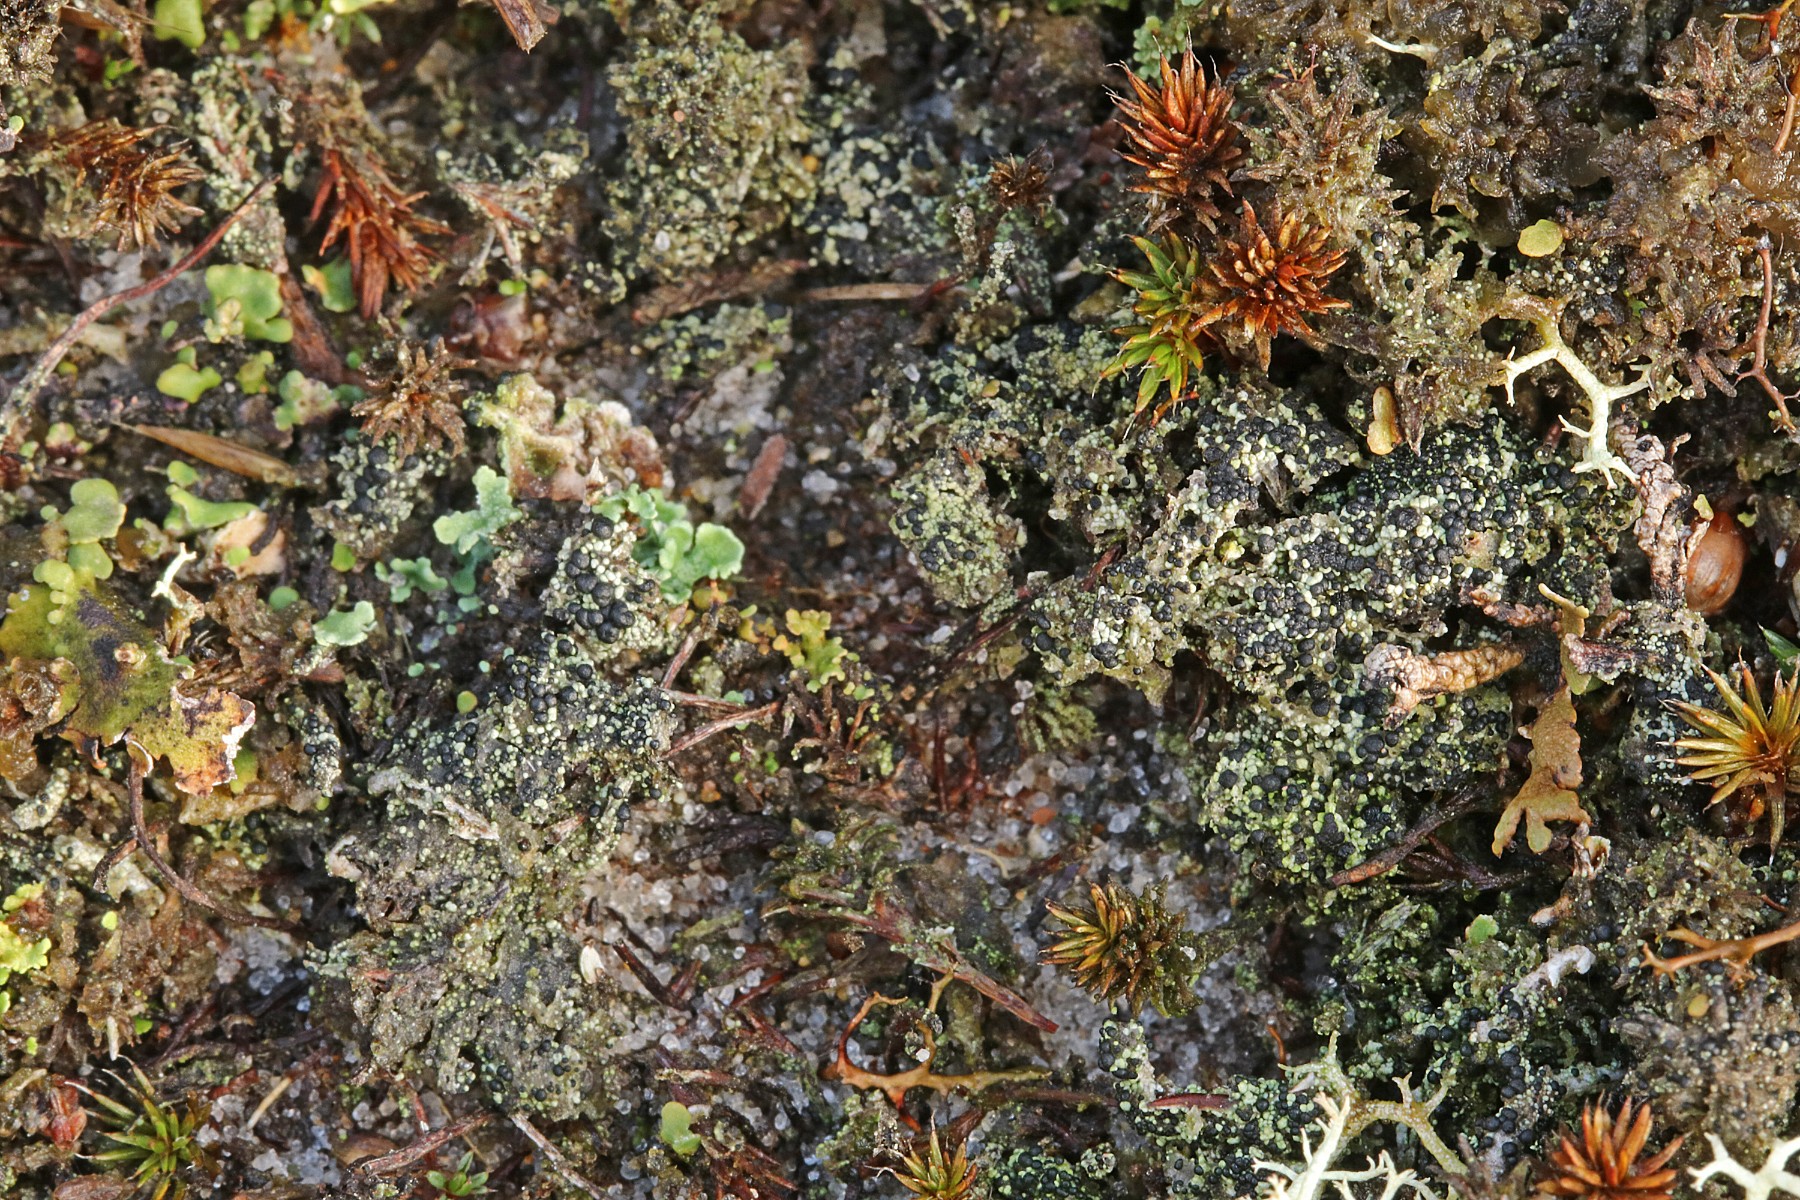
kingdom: Fungi
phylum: Ascomycota
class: Lecanoromycetes
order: Lecanorales
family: Byssolomataceae
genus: Micarea
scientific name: Micarea lignaria
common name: tørve-knaplav
